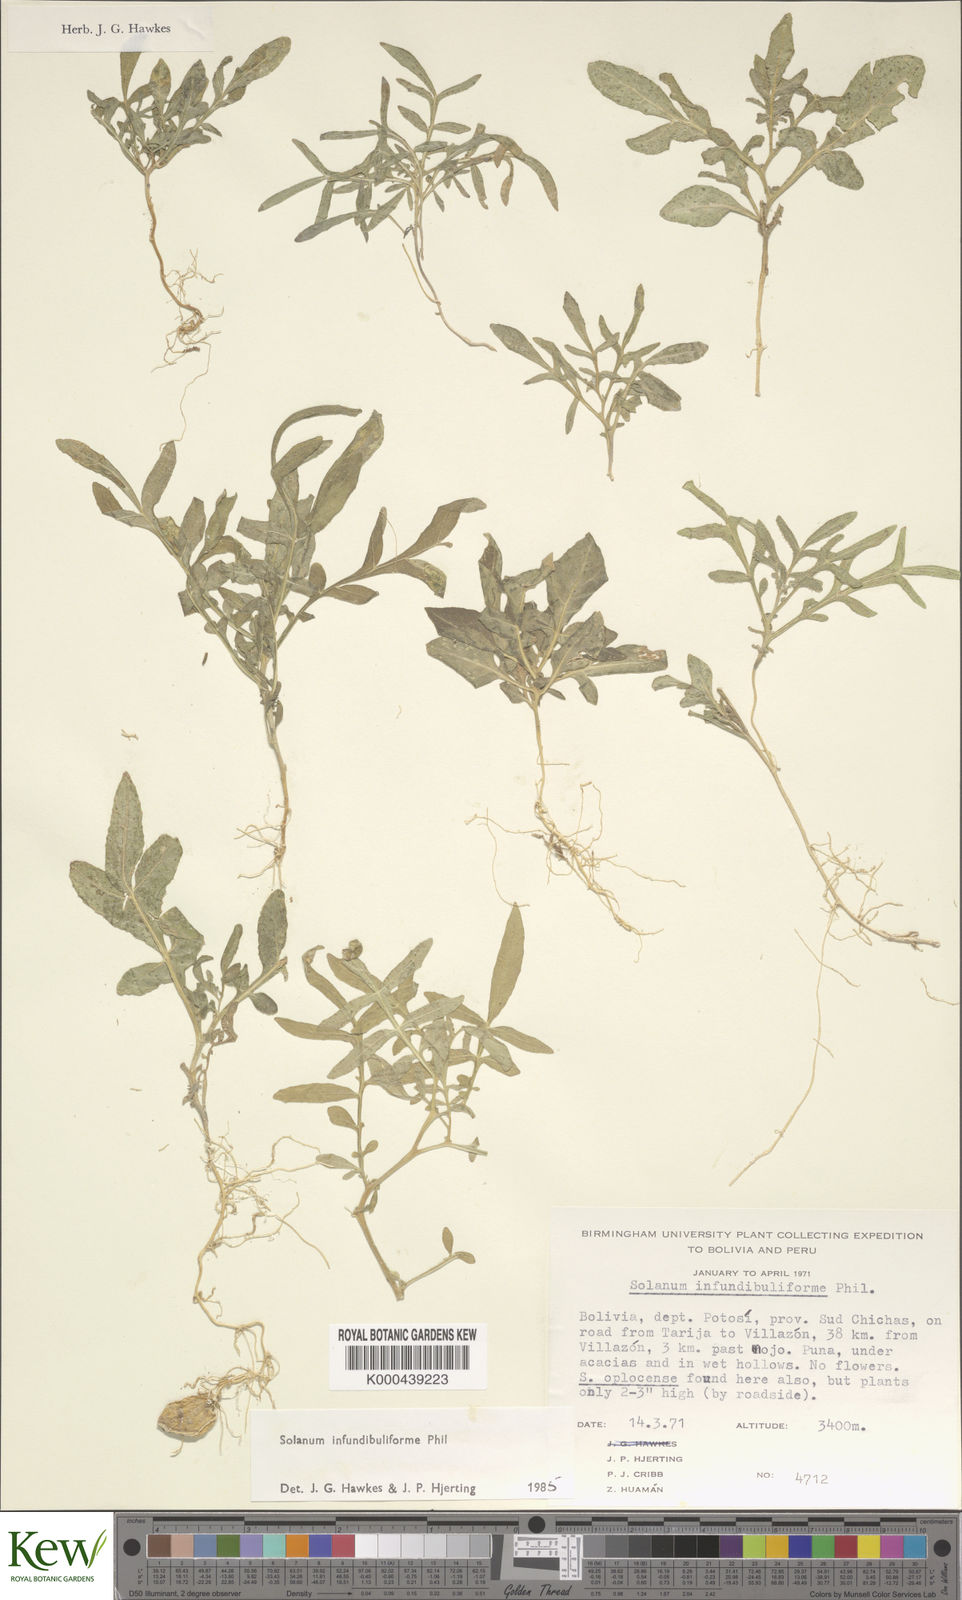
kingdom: Plantae
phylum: Tracheophyta
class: Magnoliopsida
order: Solanales
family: Solanaceae
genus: Solanum
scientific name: Solanum infundibuliforme
